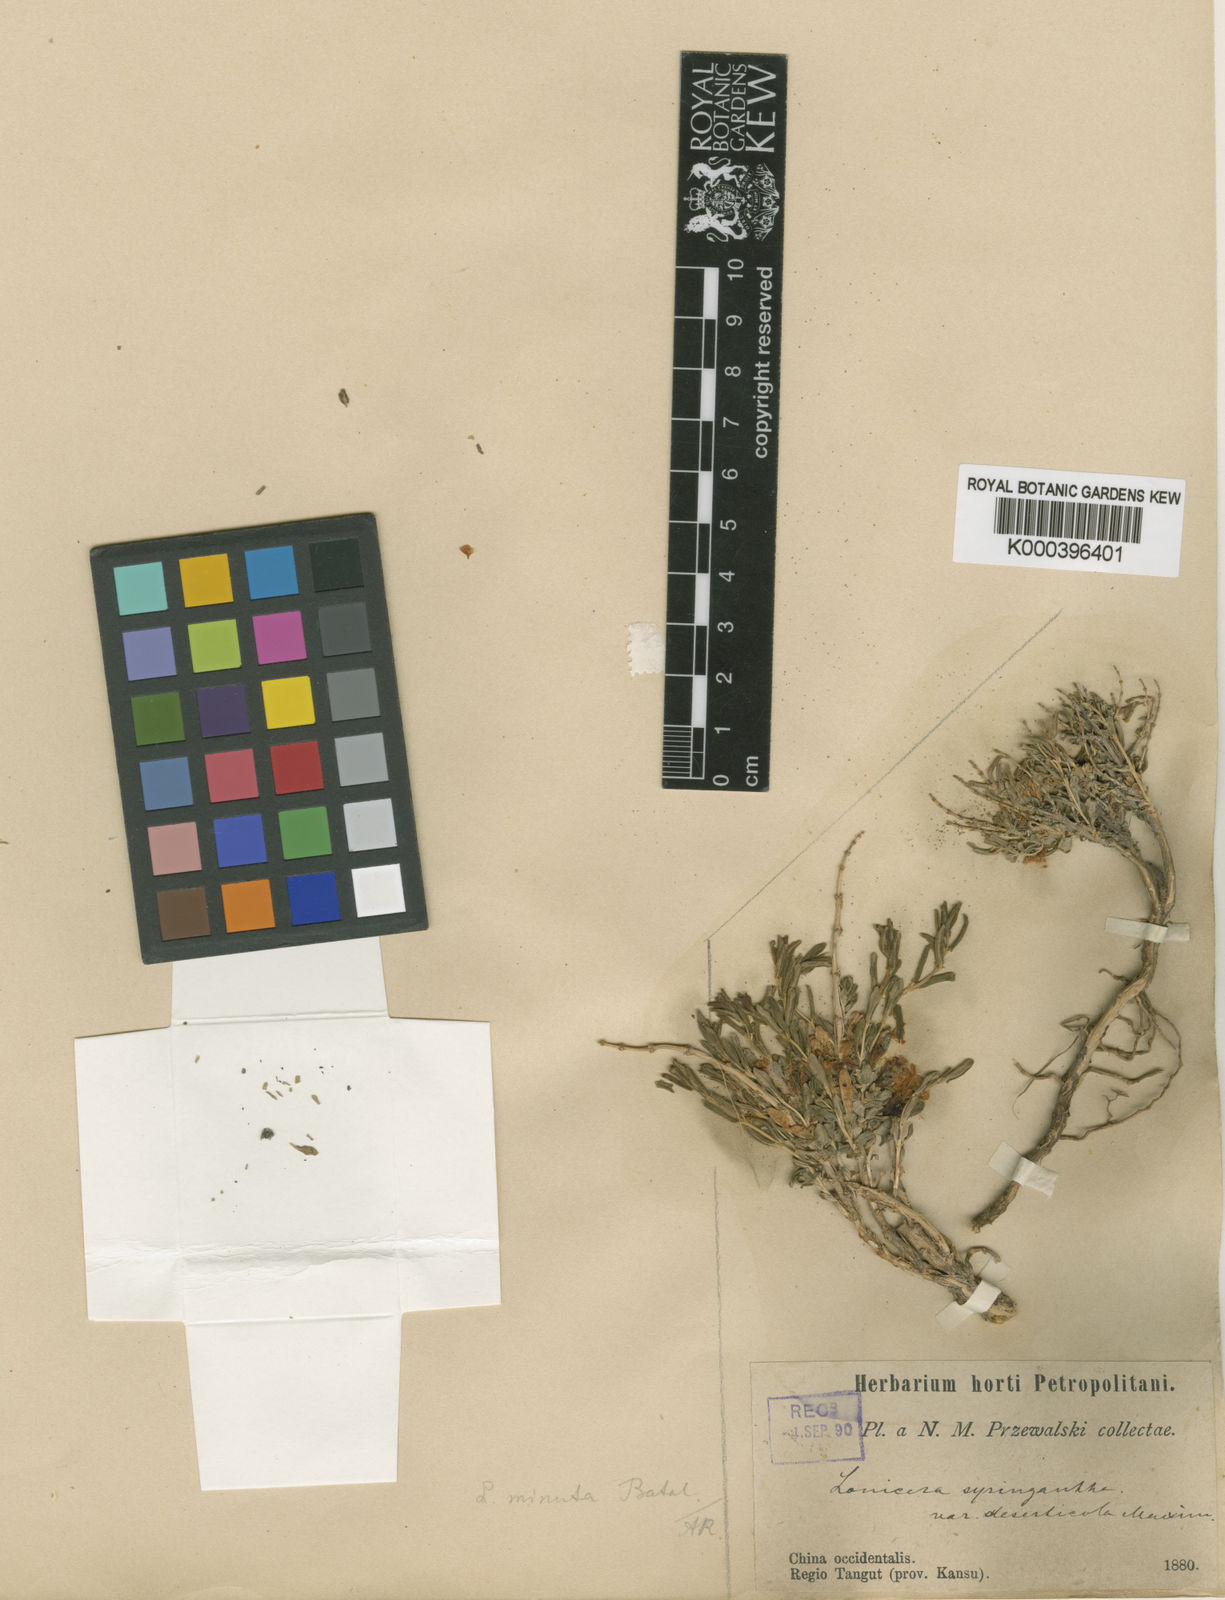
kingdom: Plantae
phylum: Tracheophyta
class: Magnoliopsida
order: Dipsacales
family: Caprifoliaceae
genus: Lonicera
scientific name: Lonicera rupicola
